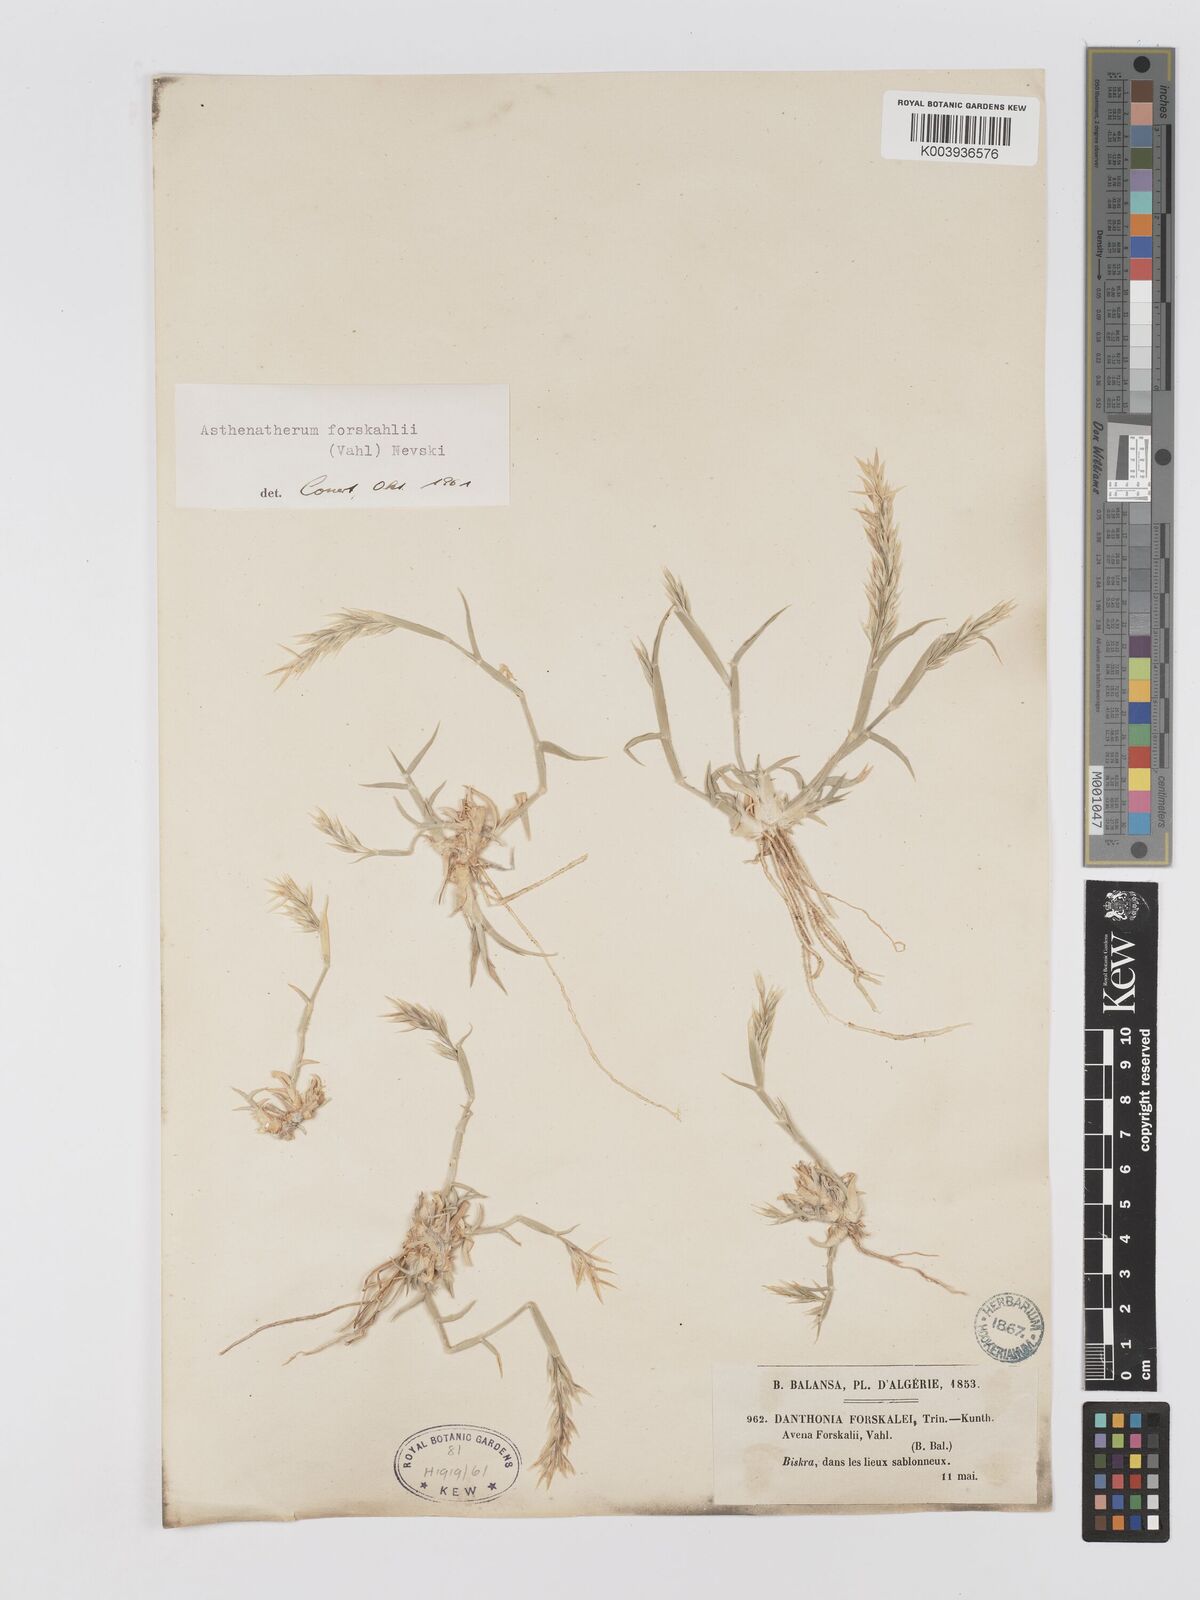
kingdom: Plantae
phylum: Tracheophyta
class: Liliopsida
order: Poales
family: Poaceae
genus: Centropodia
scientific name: Centropodia forskaolii
